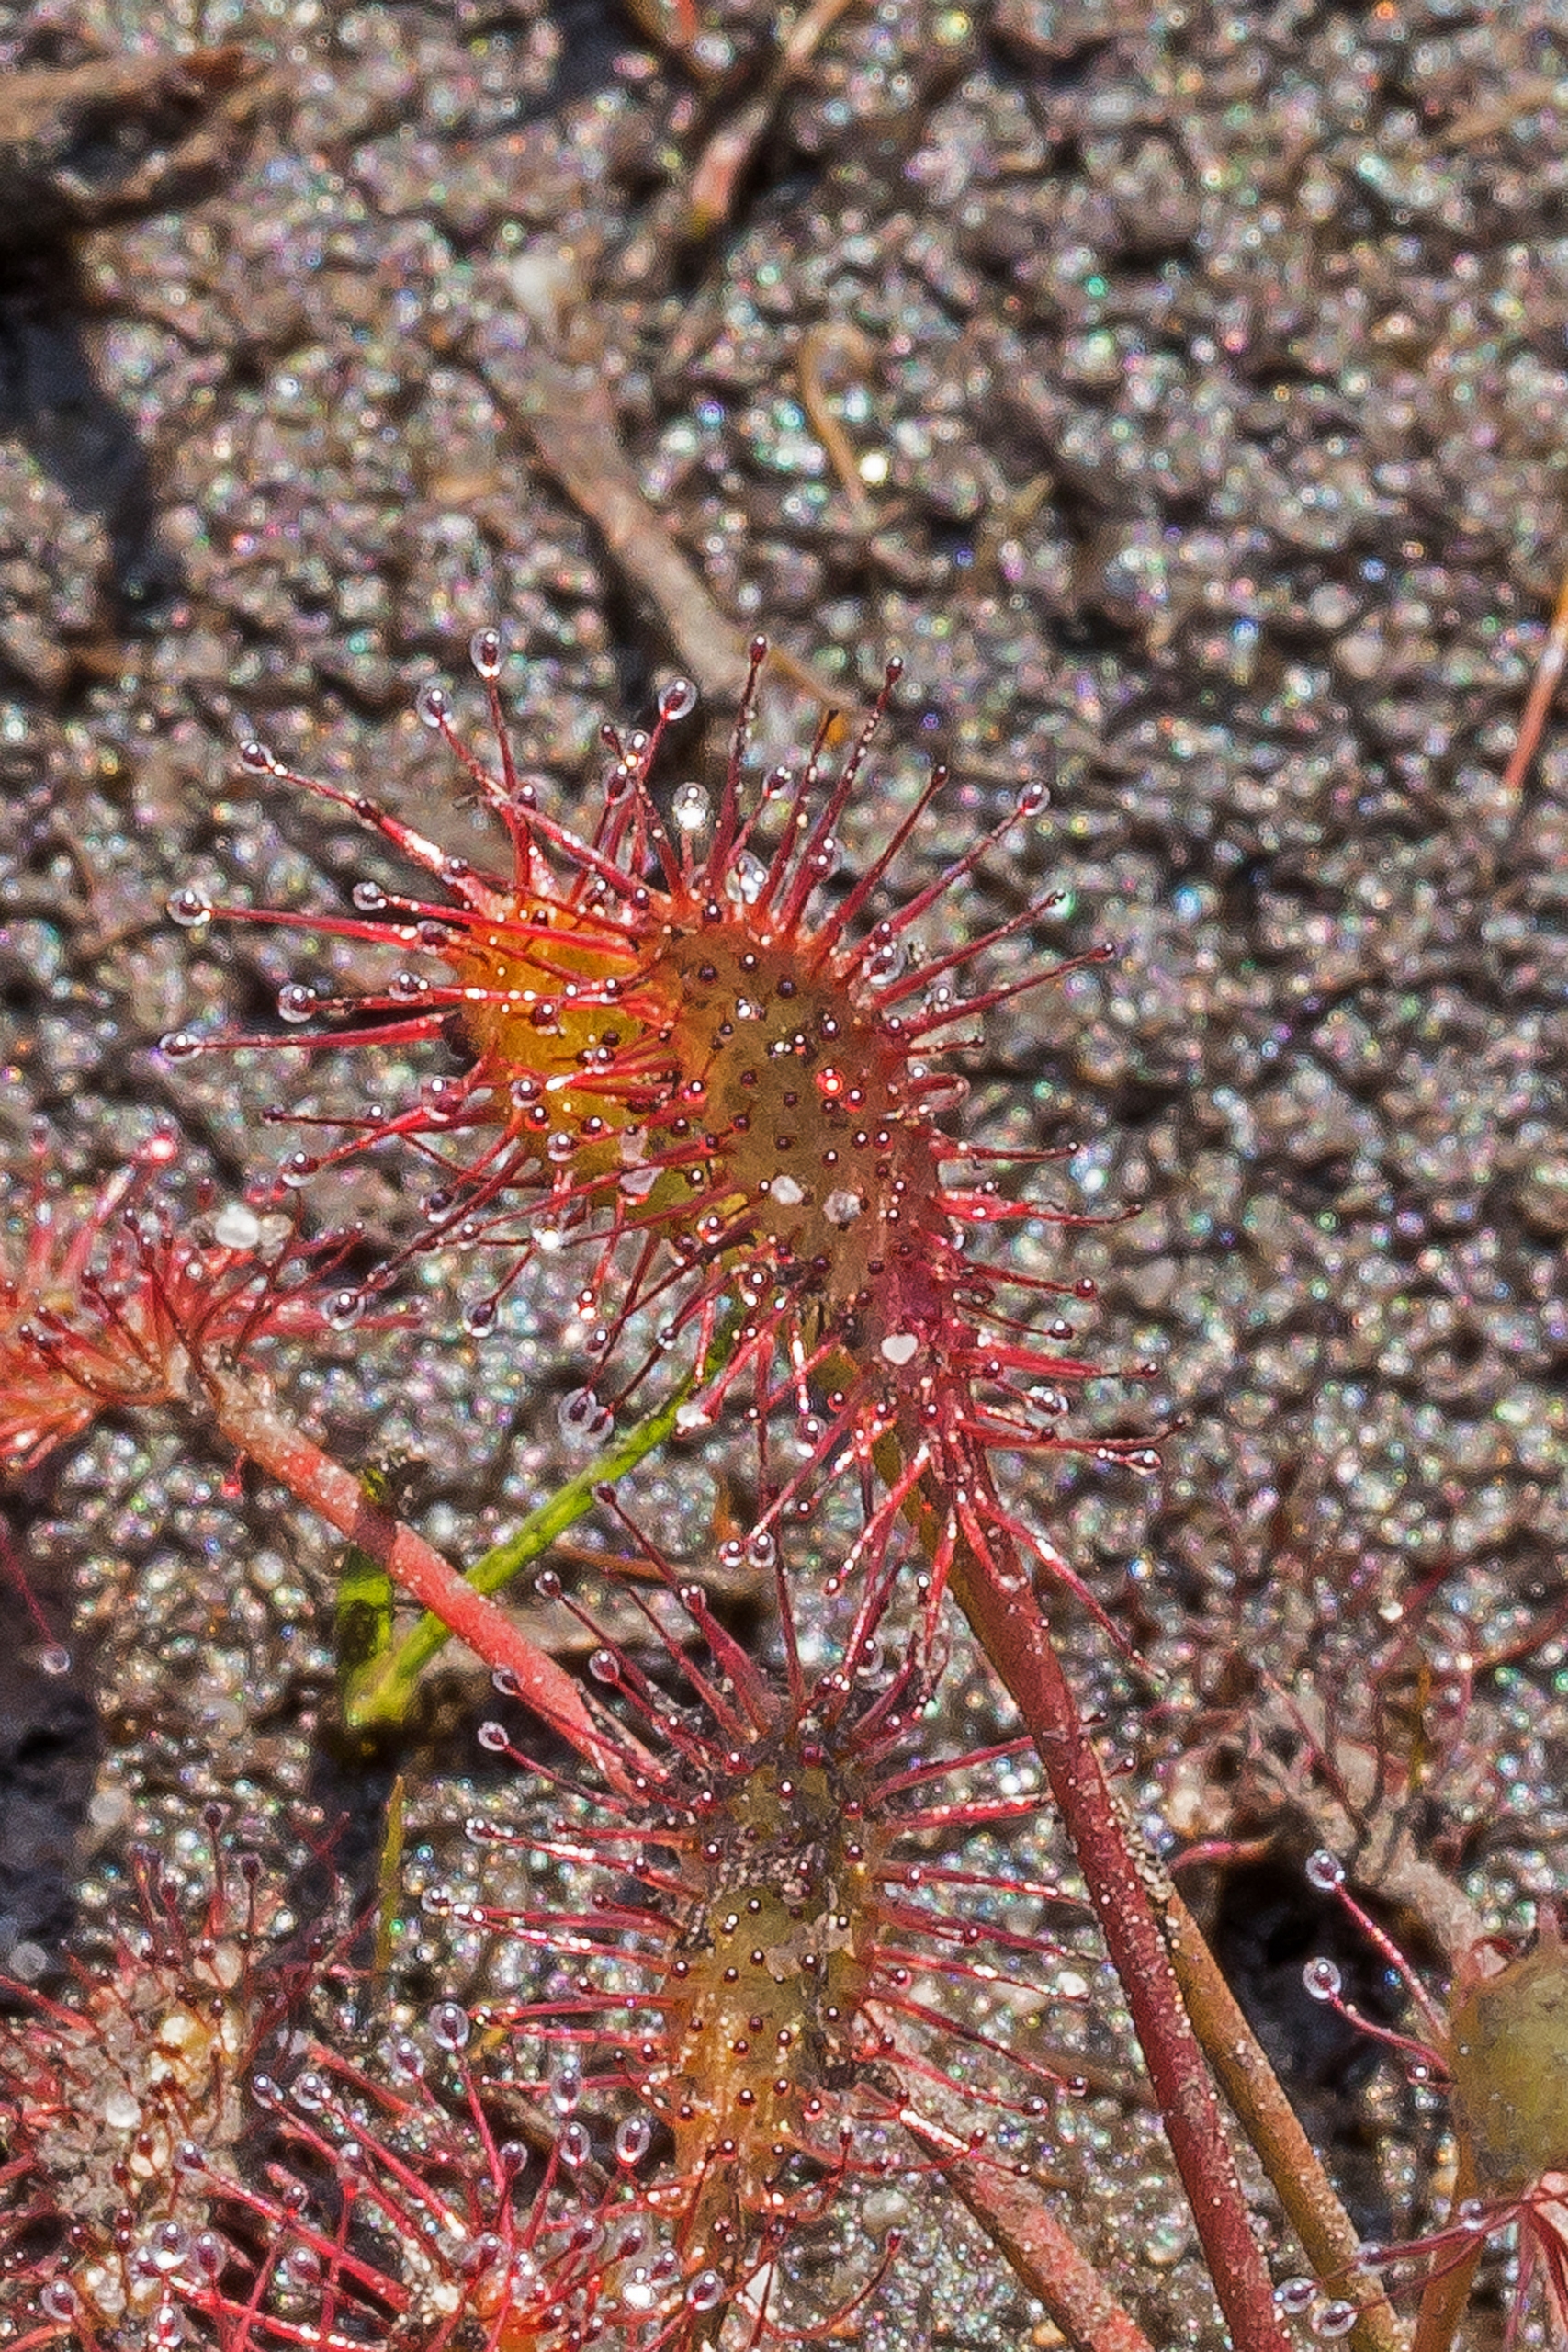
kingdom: Plantae
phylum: Tracheophyta
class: Magnoliopsida
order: Caryophyllales
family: Droseraceae
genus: Drosera
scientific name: Drosera intermedia
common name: Liden soldug
